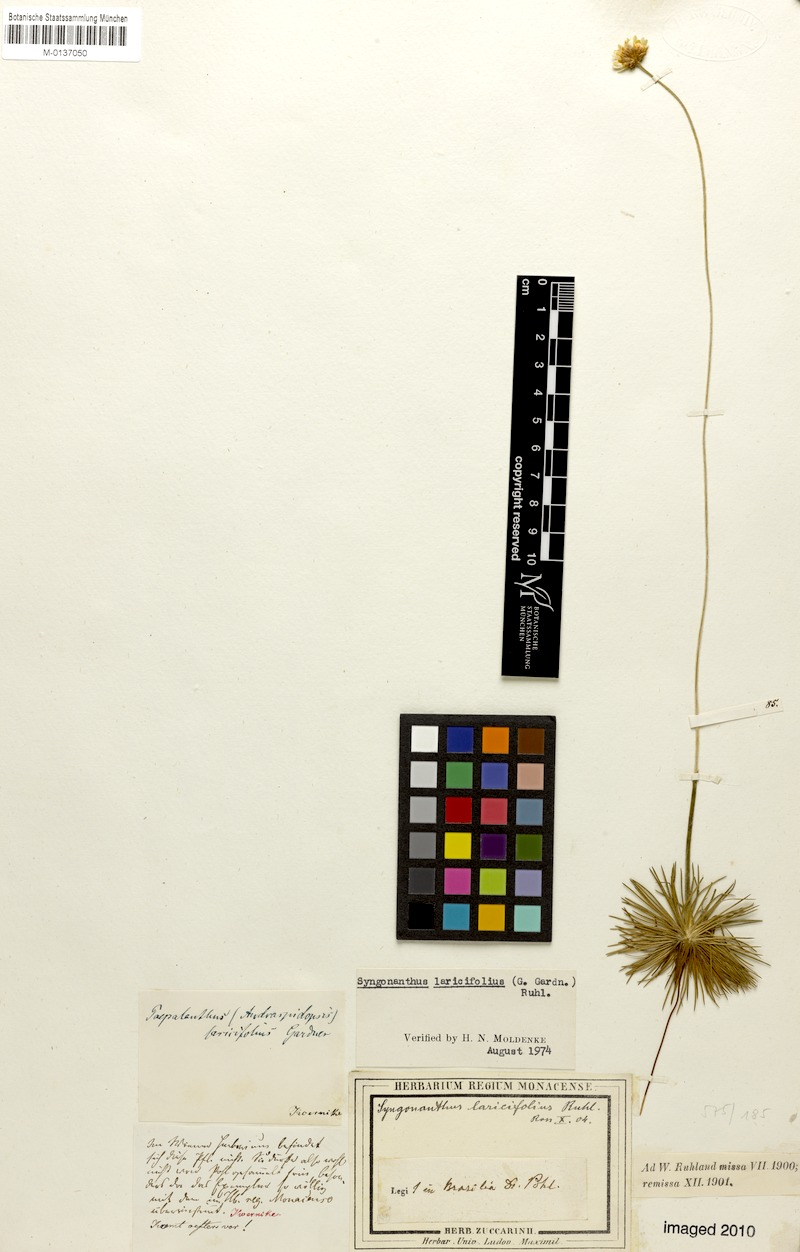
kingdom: Plantae
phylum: Tracheophyta
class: Liliopsida
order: Poales
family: Eriocaulaceae
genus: Syngonanthus
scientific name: Syngonanthus laricifolius
